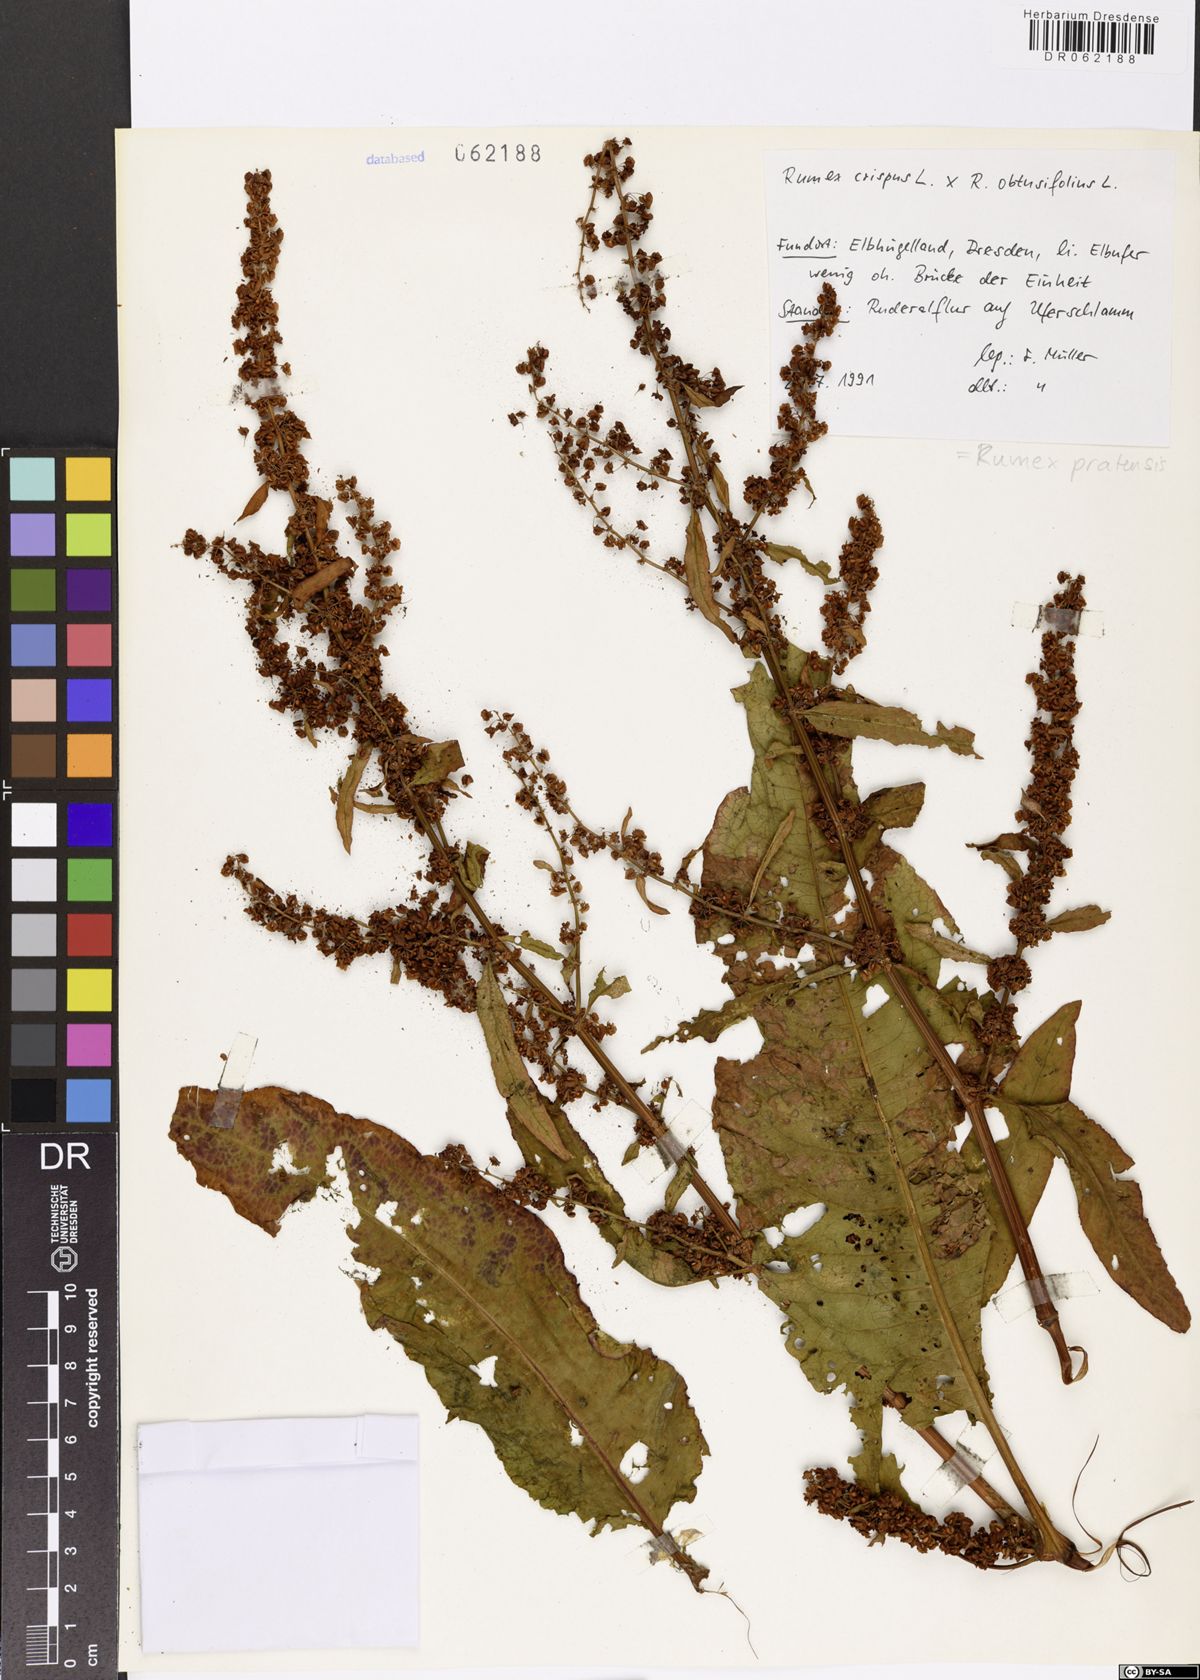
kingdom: Plantae
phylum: Tracheophyta
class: Magnoliopsida
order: Caryophyllales
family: Polygonaceae
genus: Rumex
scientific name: Rumex pratensis
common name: Knotweed
